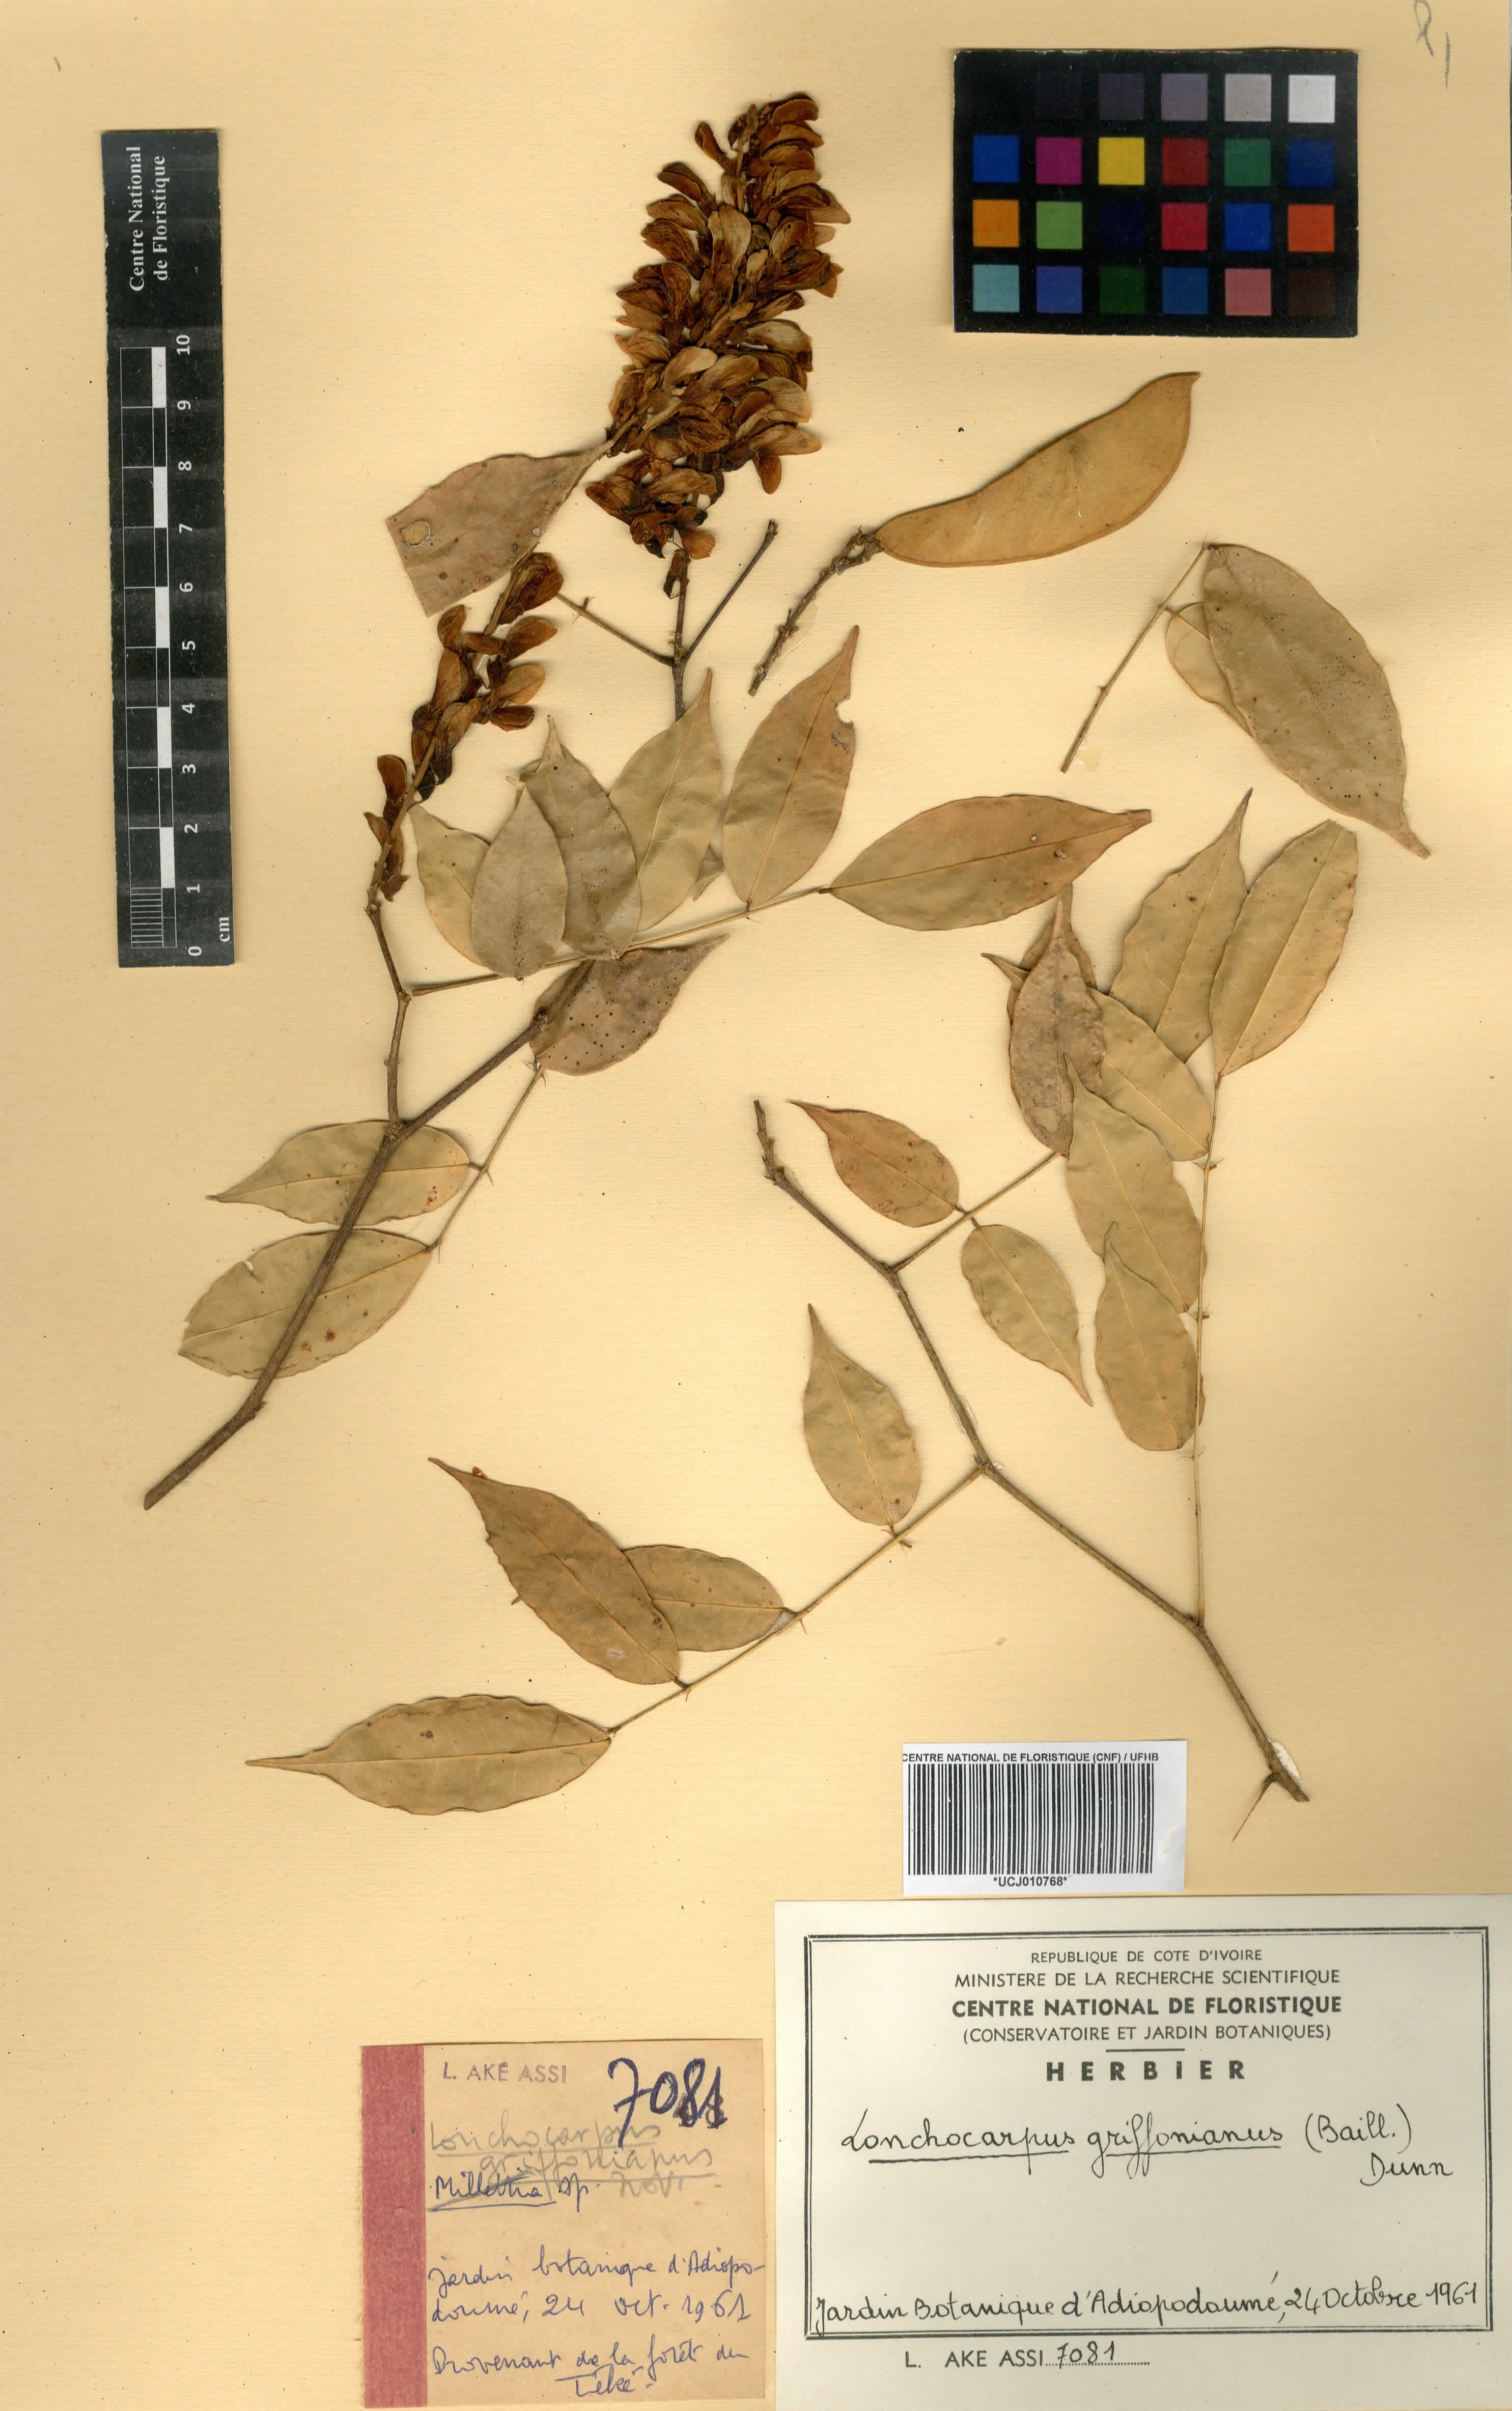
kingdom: Plantae
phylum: Tracheophyta
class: Magnoliopsida
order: Fabales
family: Fabaceae
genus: Millettia
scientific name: Millettia griffoniana
